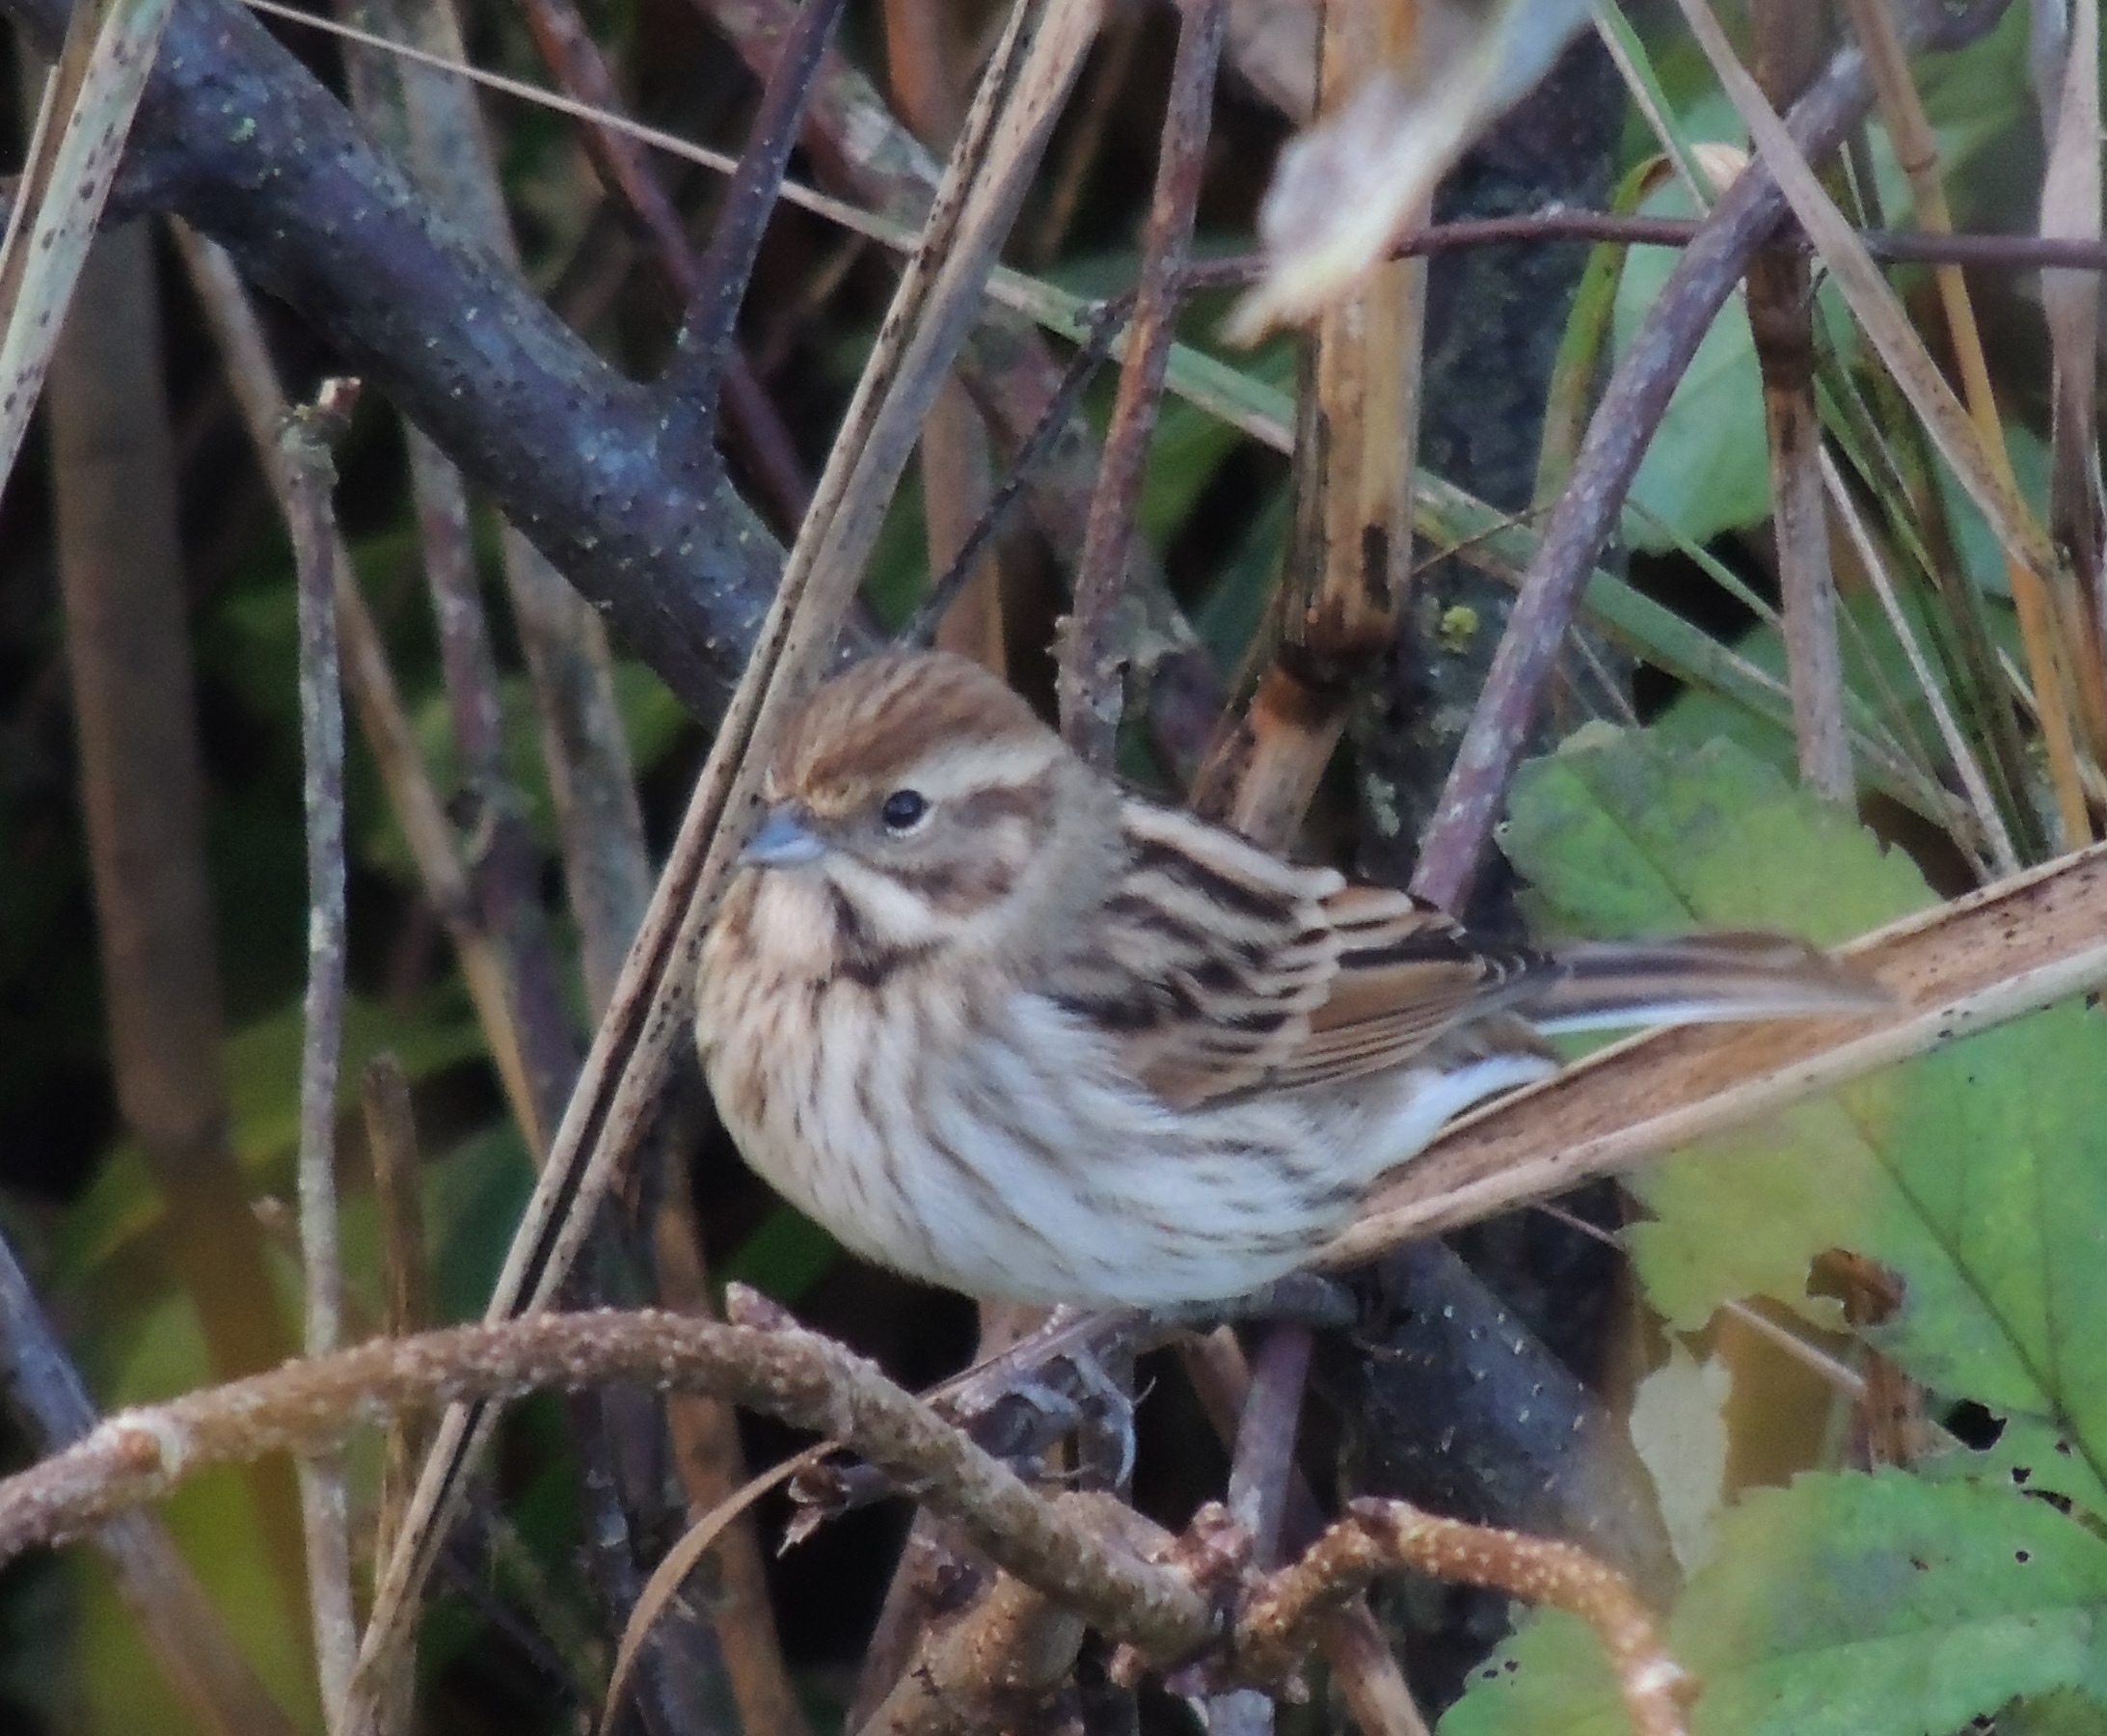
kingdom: Animalia
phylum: Chordata
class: Aves
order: Passeriformes
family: Emberizidae
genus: Emberiza
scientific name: Emberiza schoeniclus
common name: Reed bunting
